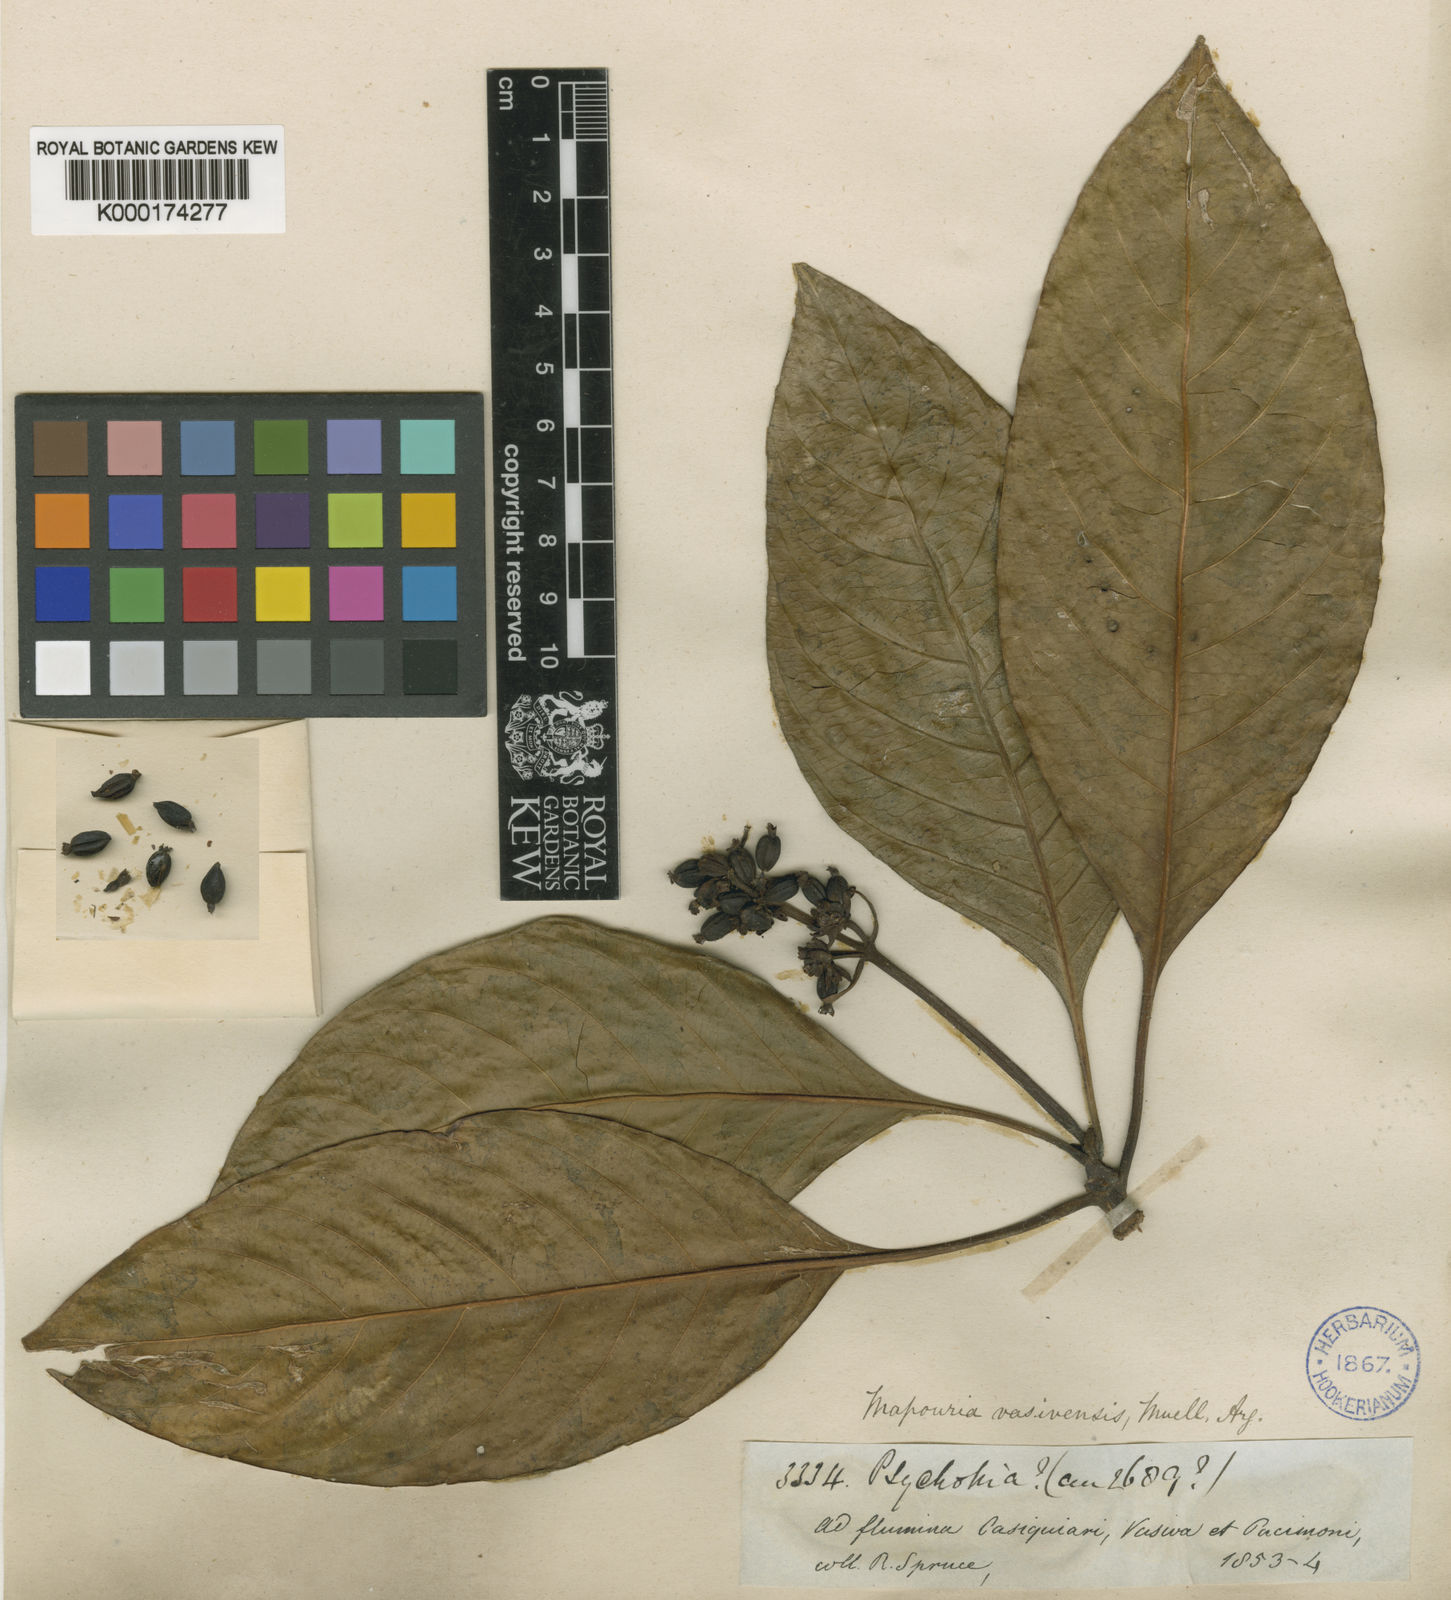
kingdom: Plantae
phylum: Tracheophyta
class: Magnoliopsida
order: Gentianales
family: Rubiaceae
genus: Carapichea
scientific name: Carapichea
